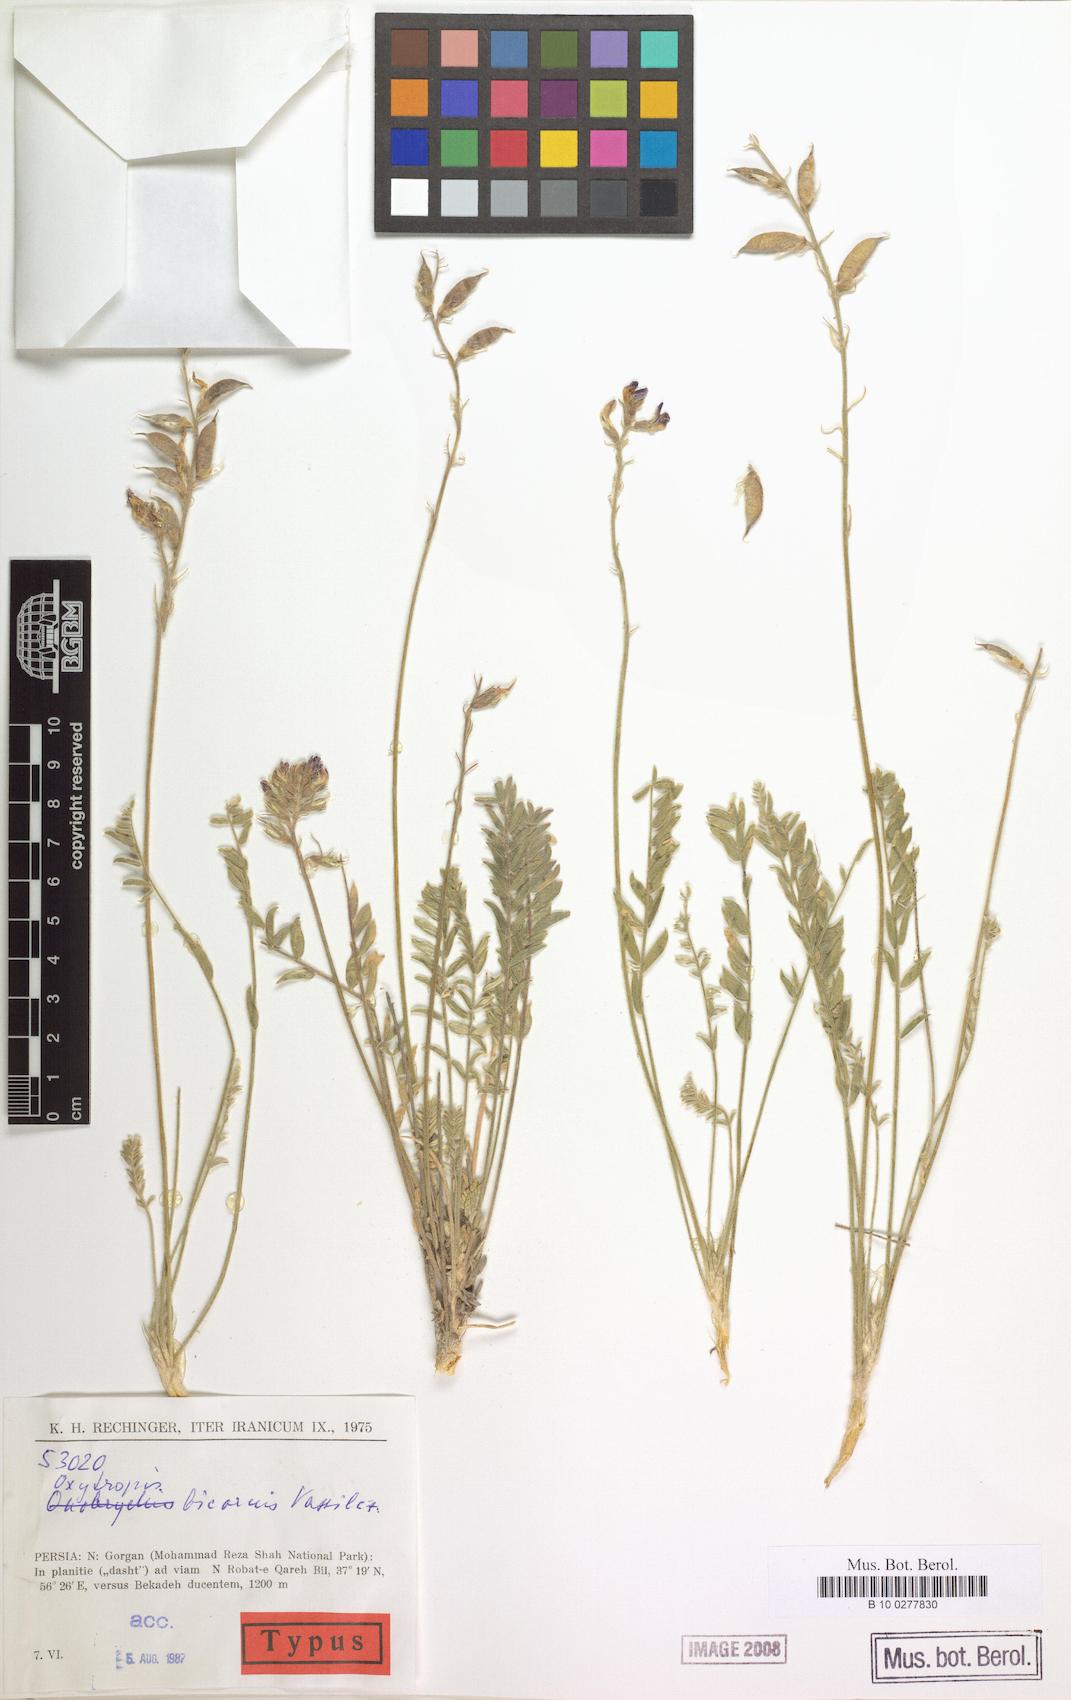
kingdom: Plantae
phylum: Tracheophyta
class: Magnoliopsida
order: Fabales
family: Fabaceae
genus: Oxytropis
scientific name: Oxytropis bicornis
